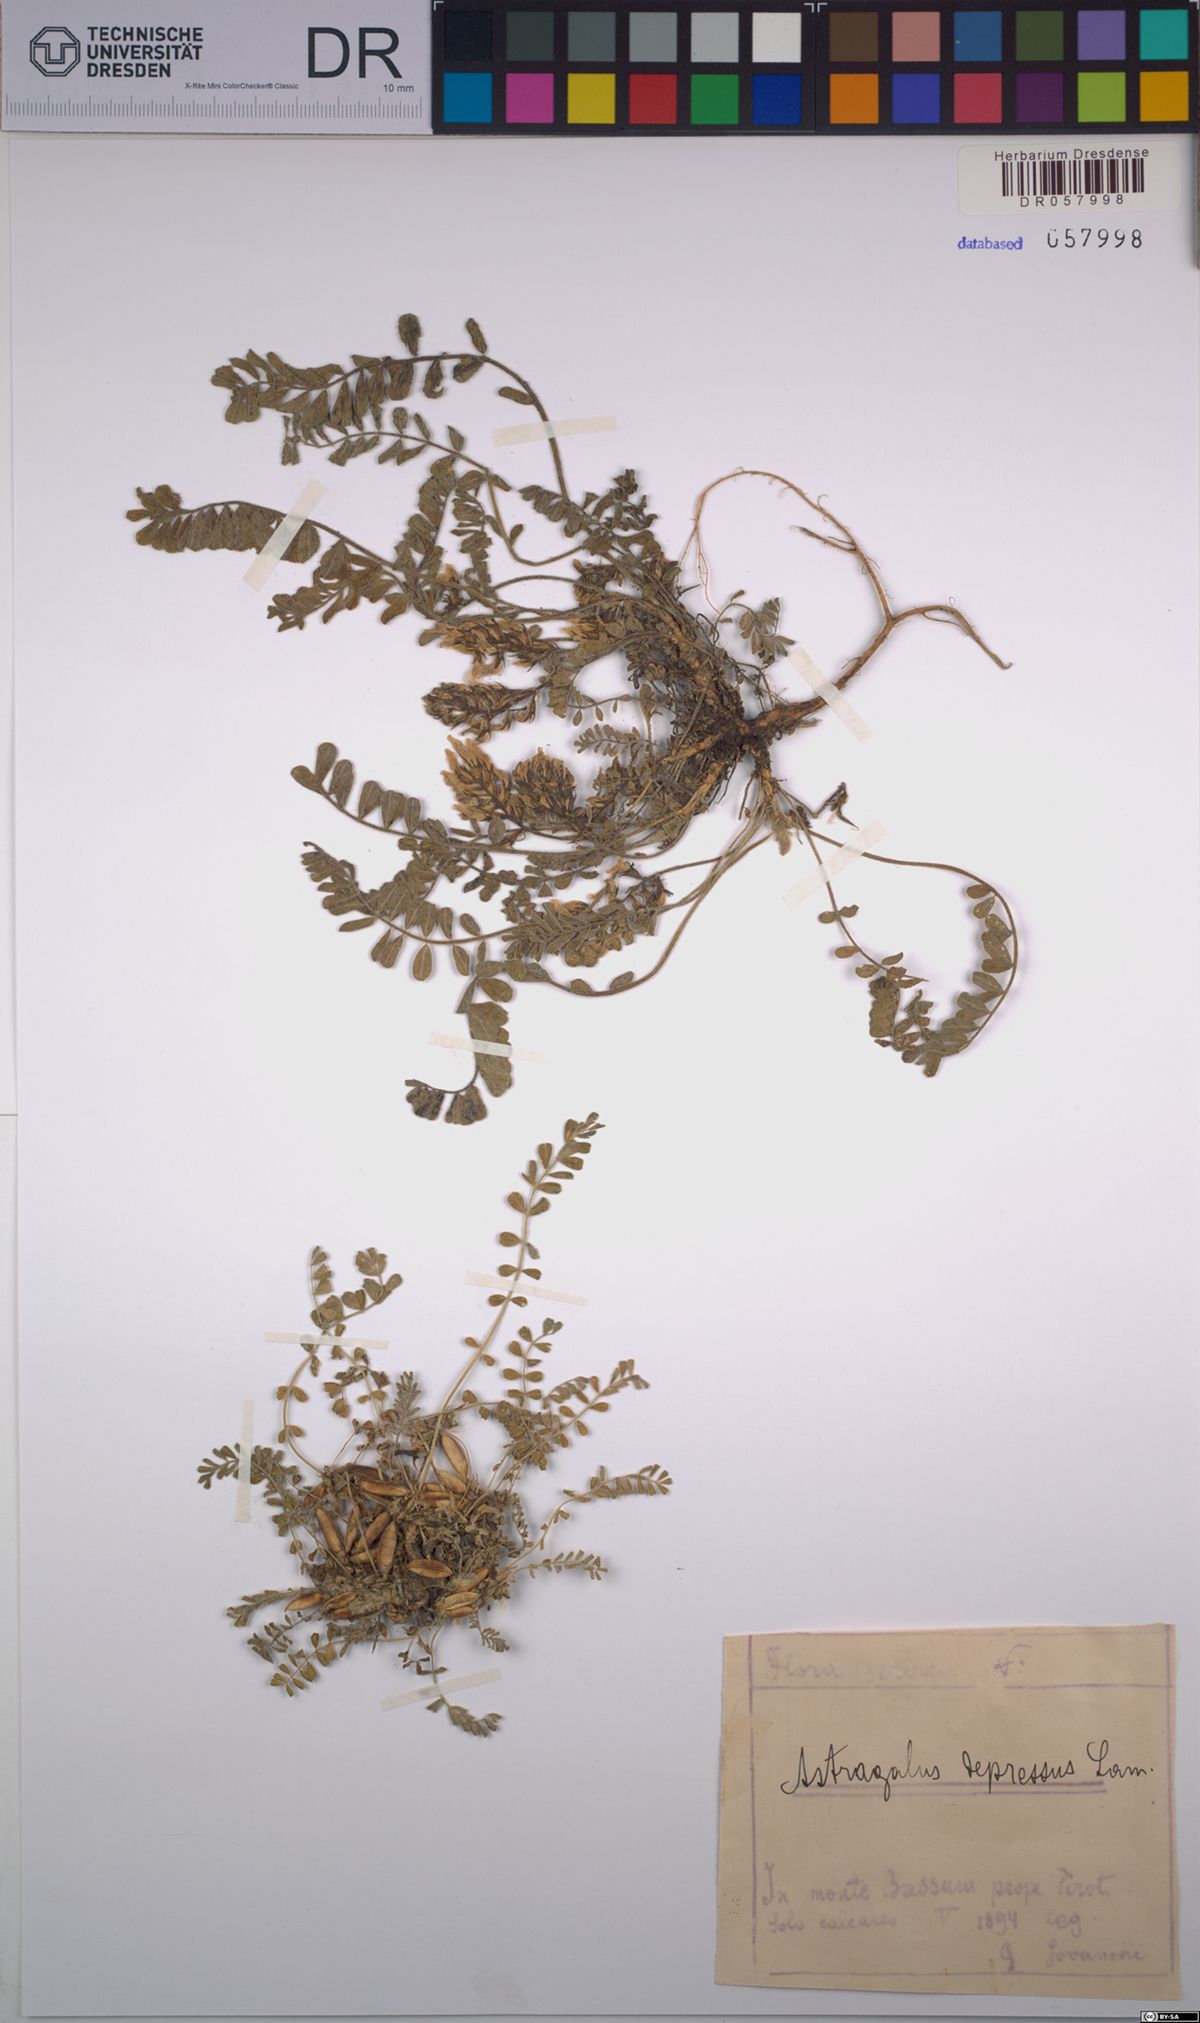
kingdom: Plantae
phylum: Tracheophyta
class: Magnoliopsida
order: Fabales
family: Fabaceae
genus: Astragalus
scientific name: Astragalus depressus
